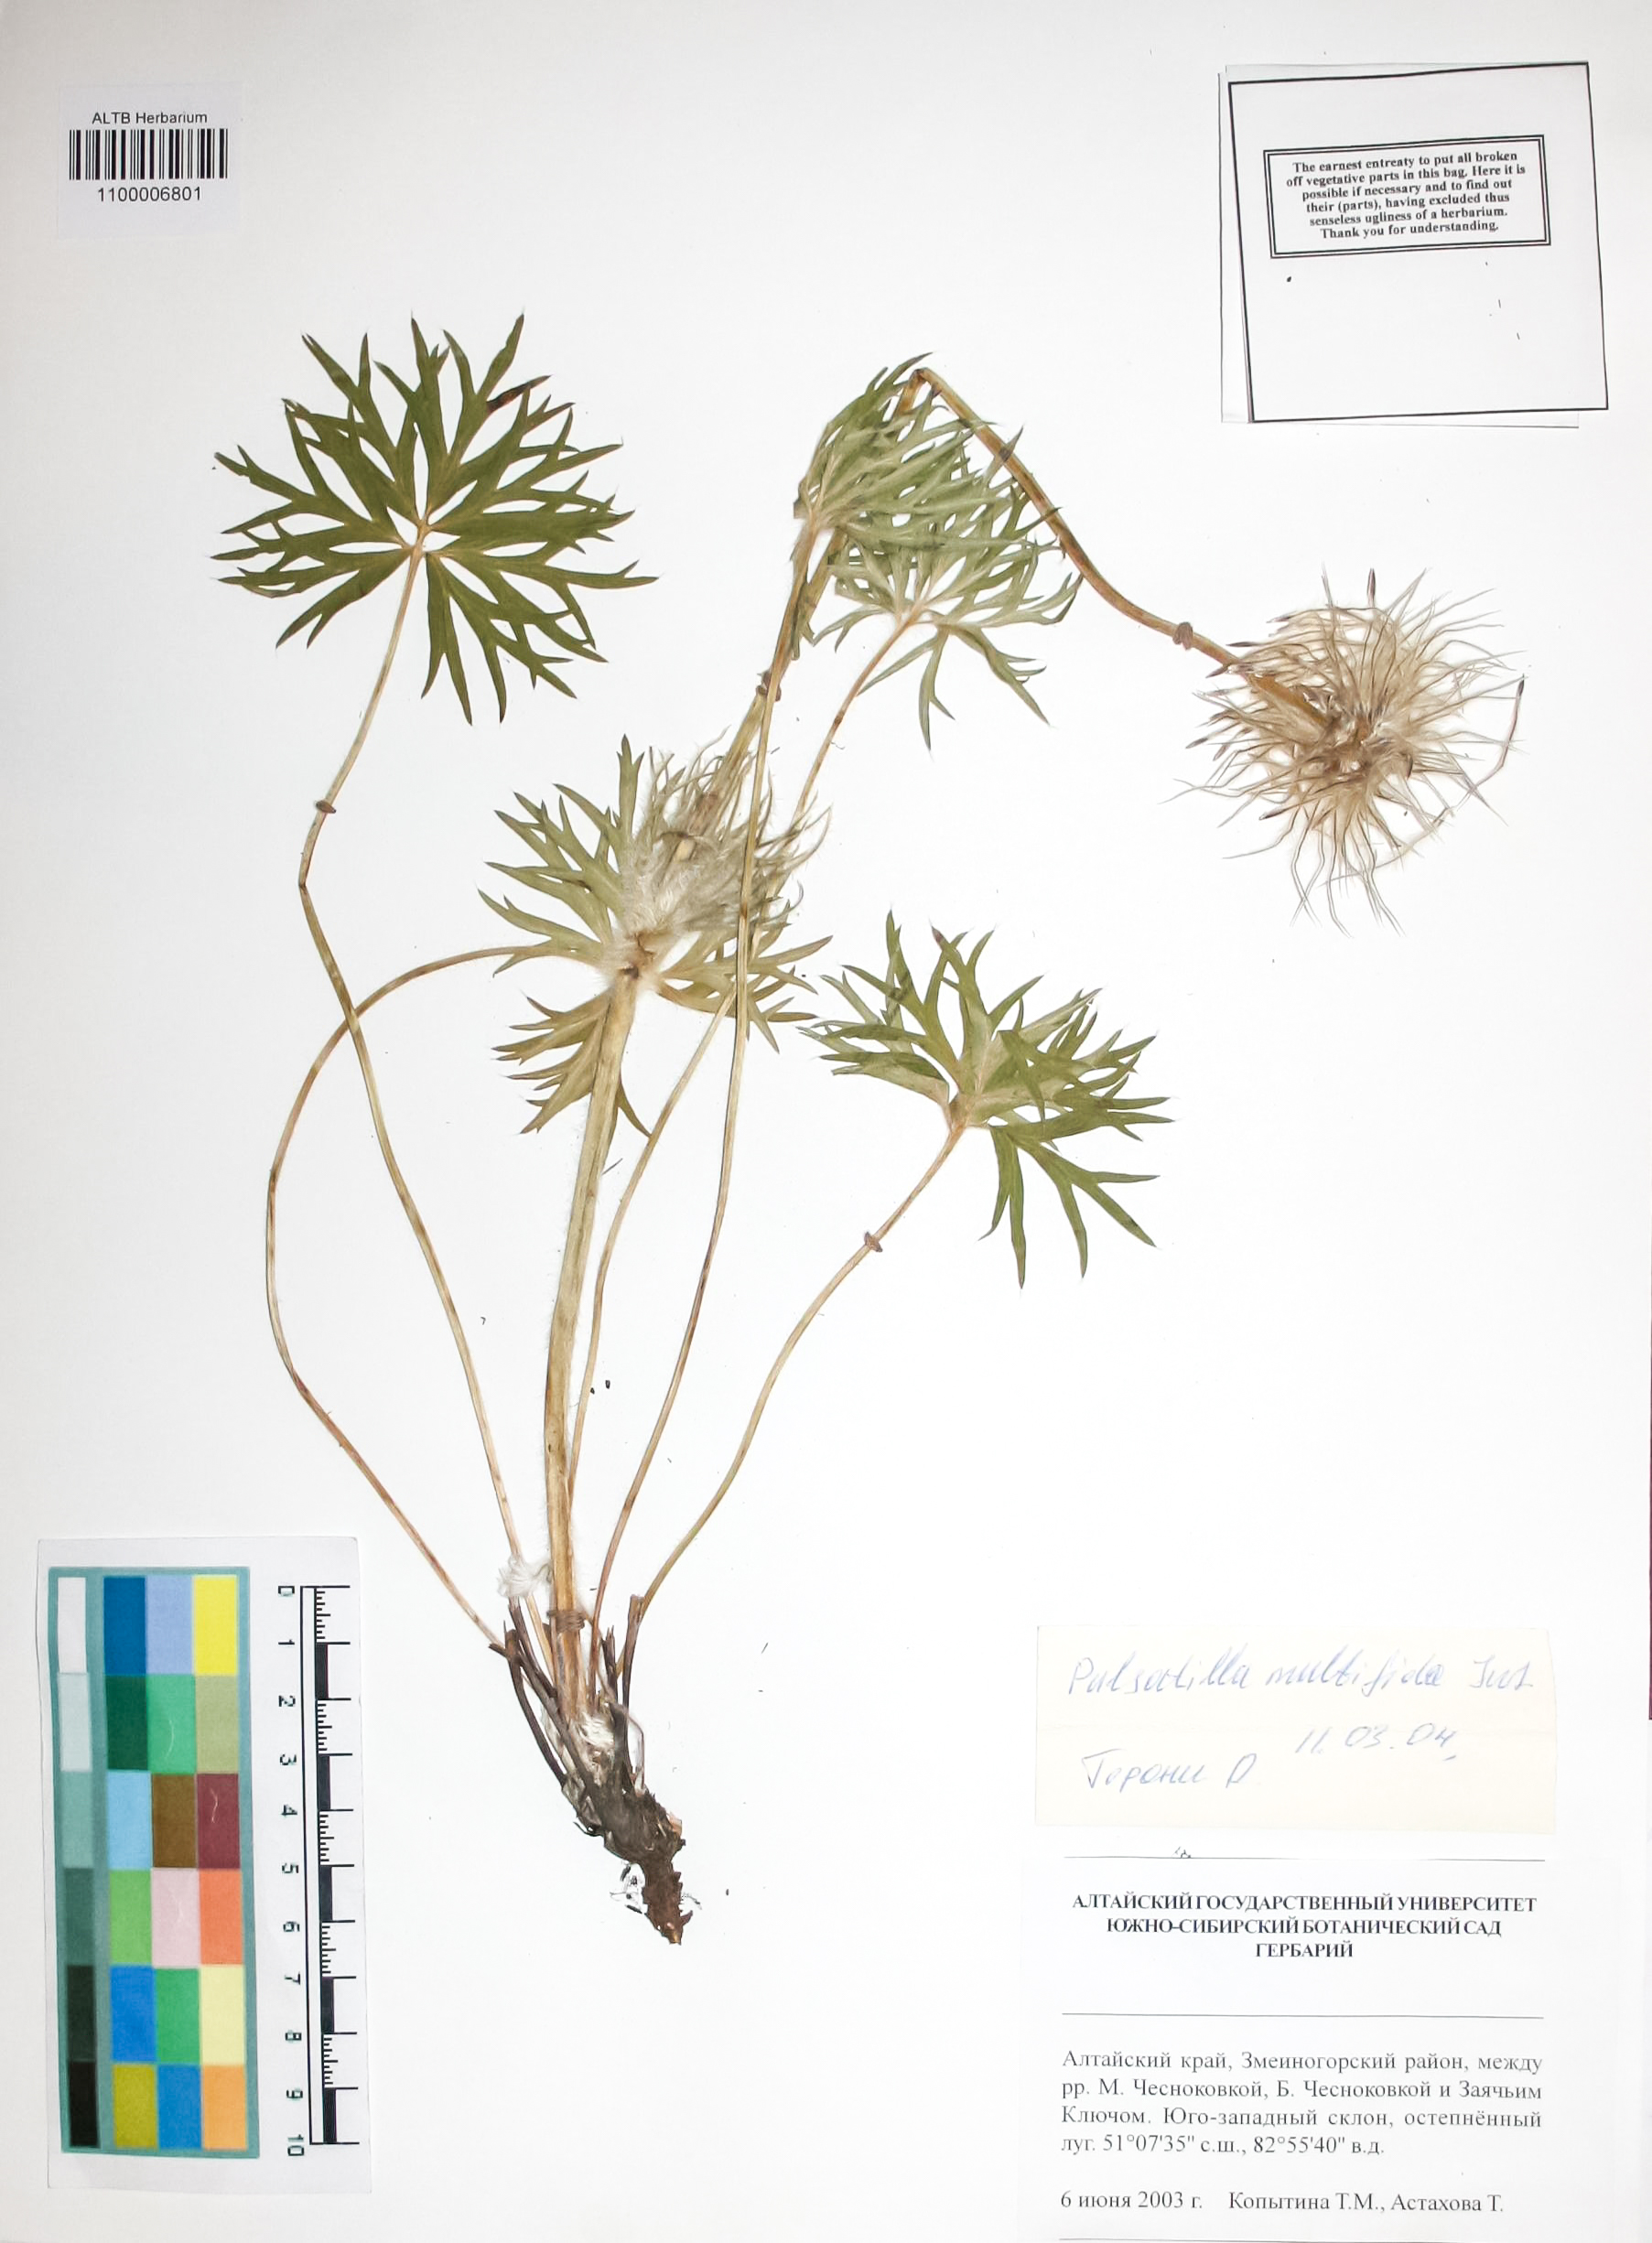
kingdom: Plantae
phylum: Tracheophyta
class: Magnoliopsida
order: Ranunculales
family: Ranunculaceae
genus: Pulsatilla
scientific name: Pulsatilla patens
